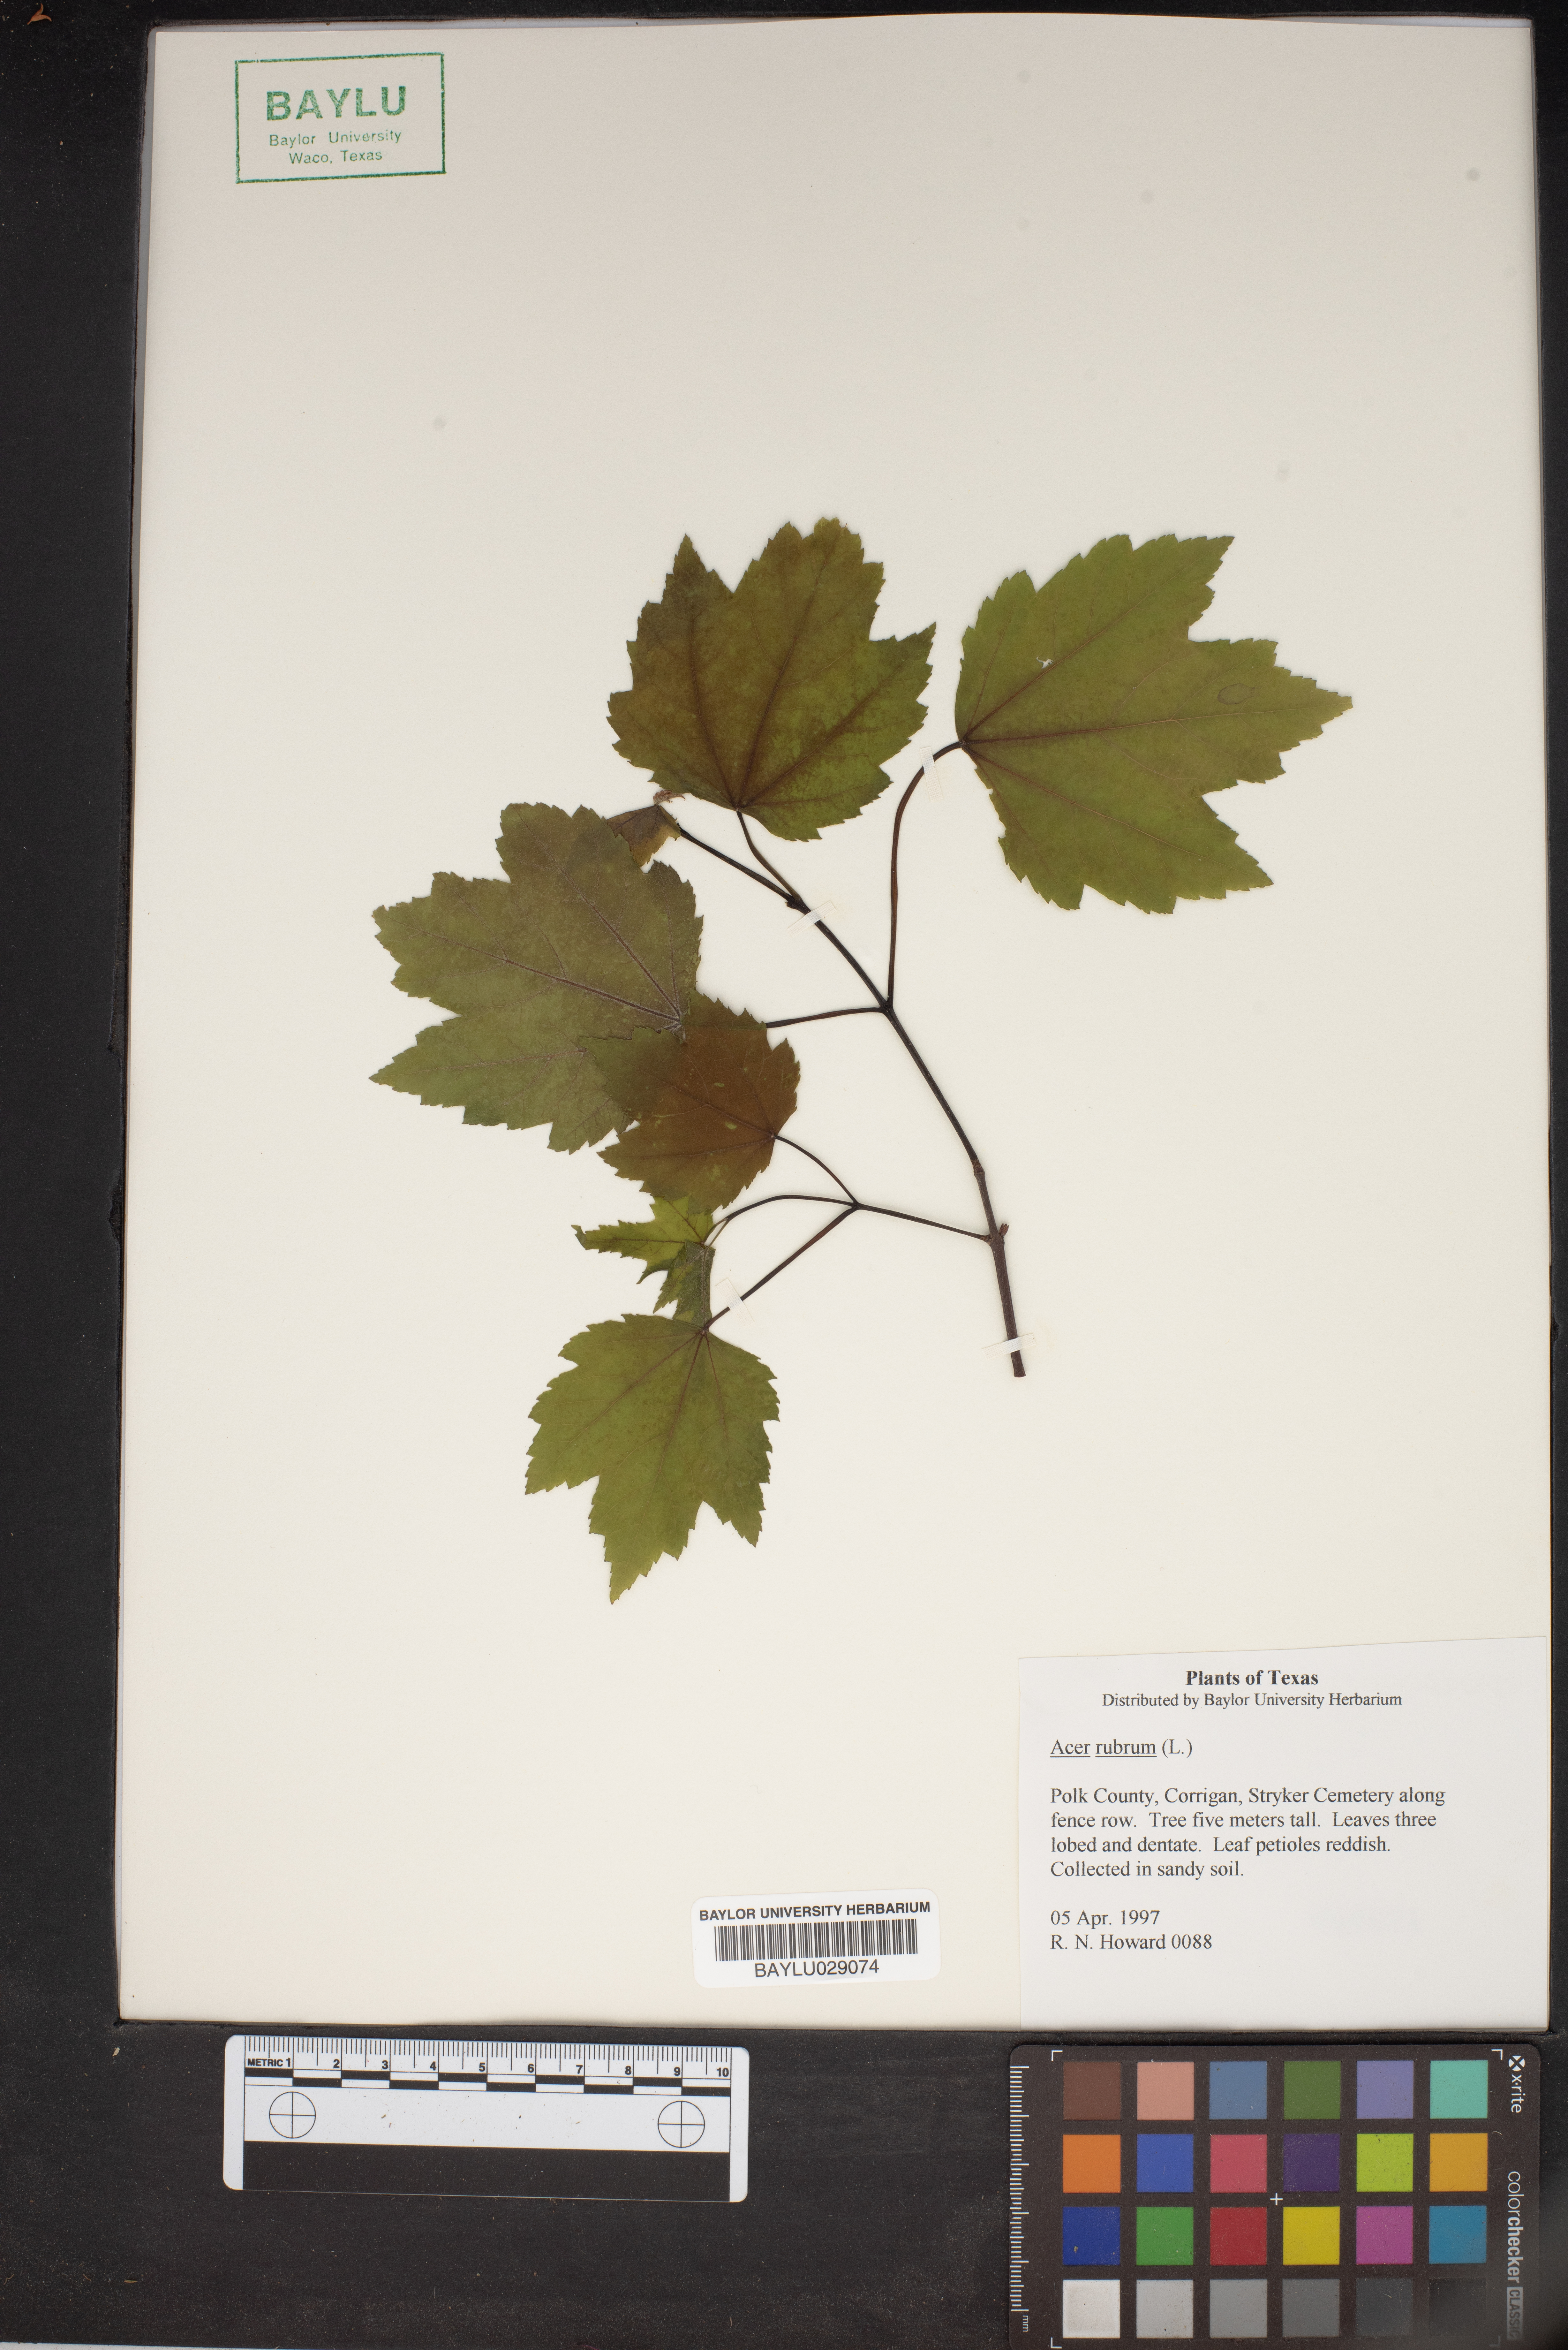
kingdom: Plantae
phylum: Tracheophyta
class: Magnoliopsida
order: Sapindales
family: Sapindaceae
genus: Acer
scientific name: Acer rubrum
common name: Red maple
